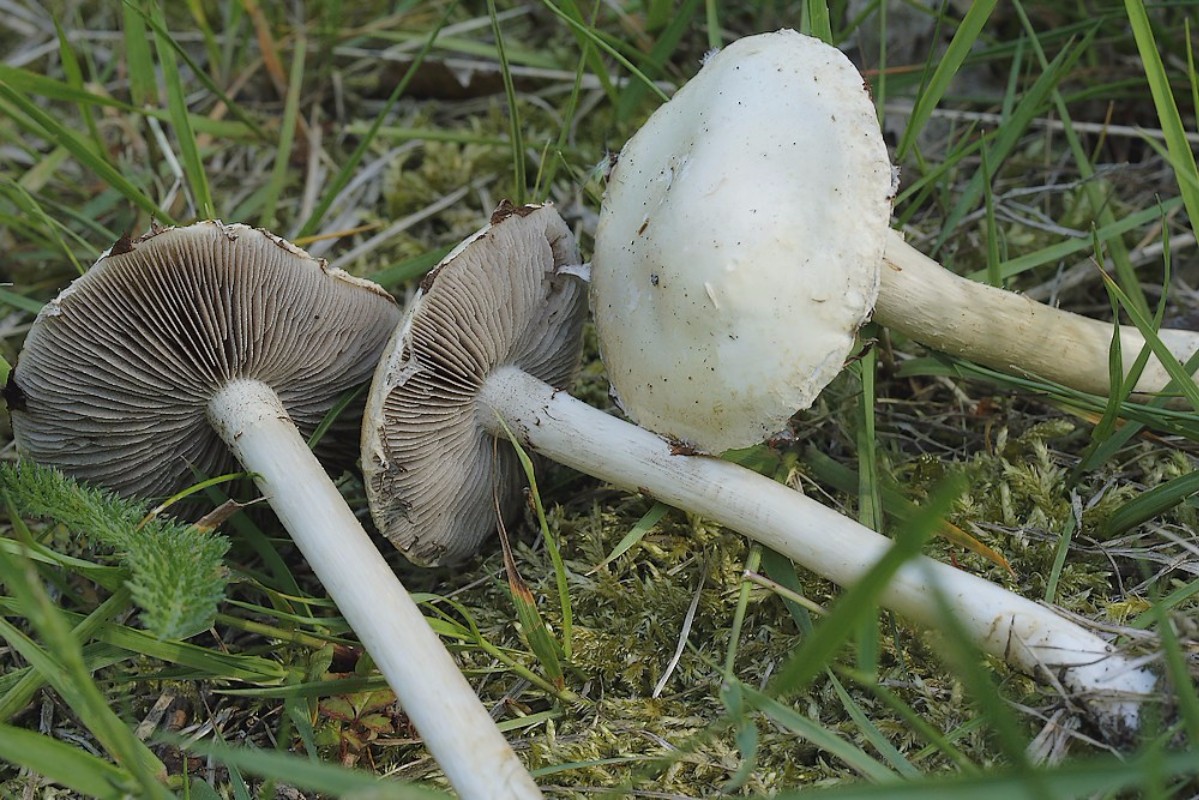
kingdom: Fungi
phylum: Basidiomycota
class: Agaricomycetes
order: Agaricales
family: Strophariaceae
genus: Agrocybe
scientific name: Agrocybe dura
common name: fastkødet agerhat
